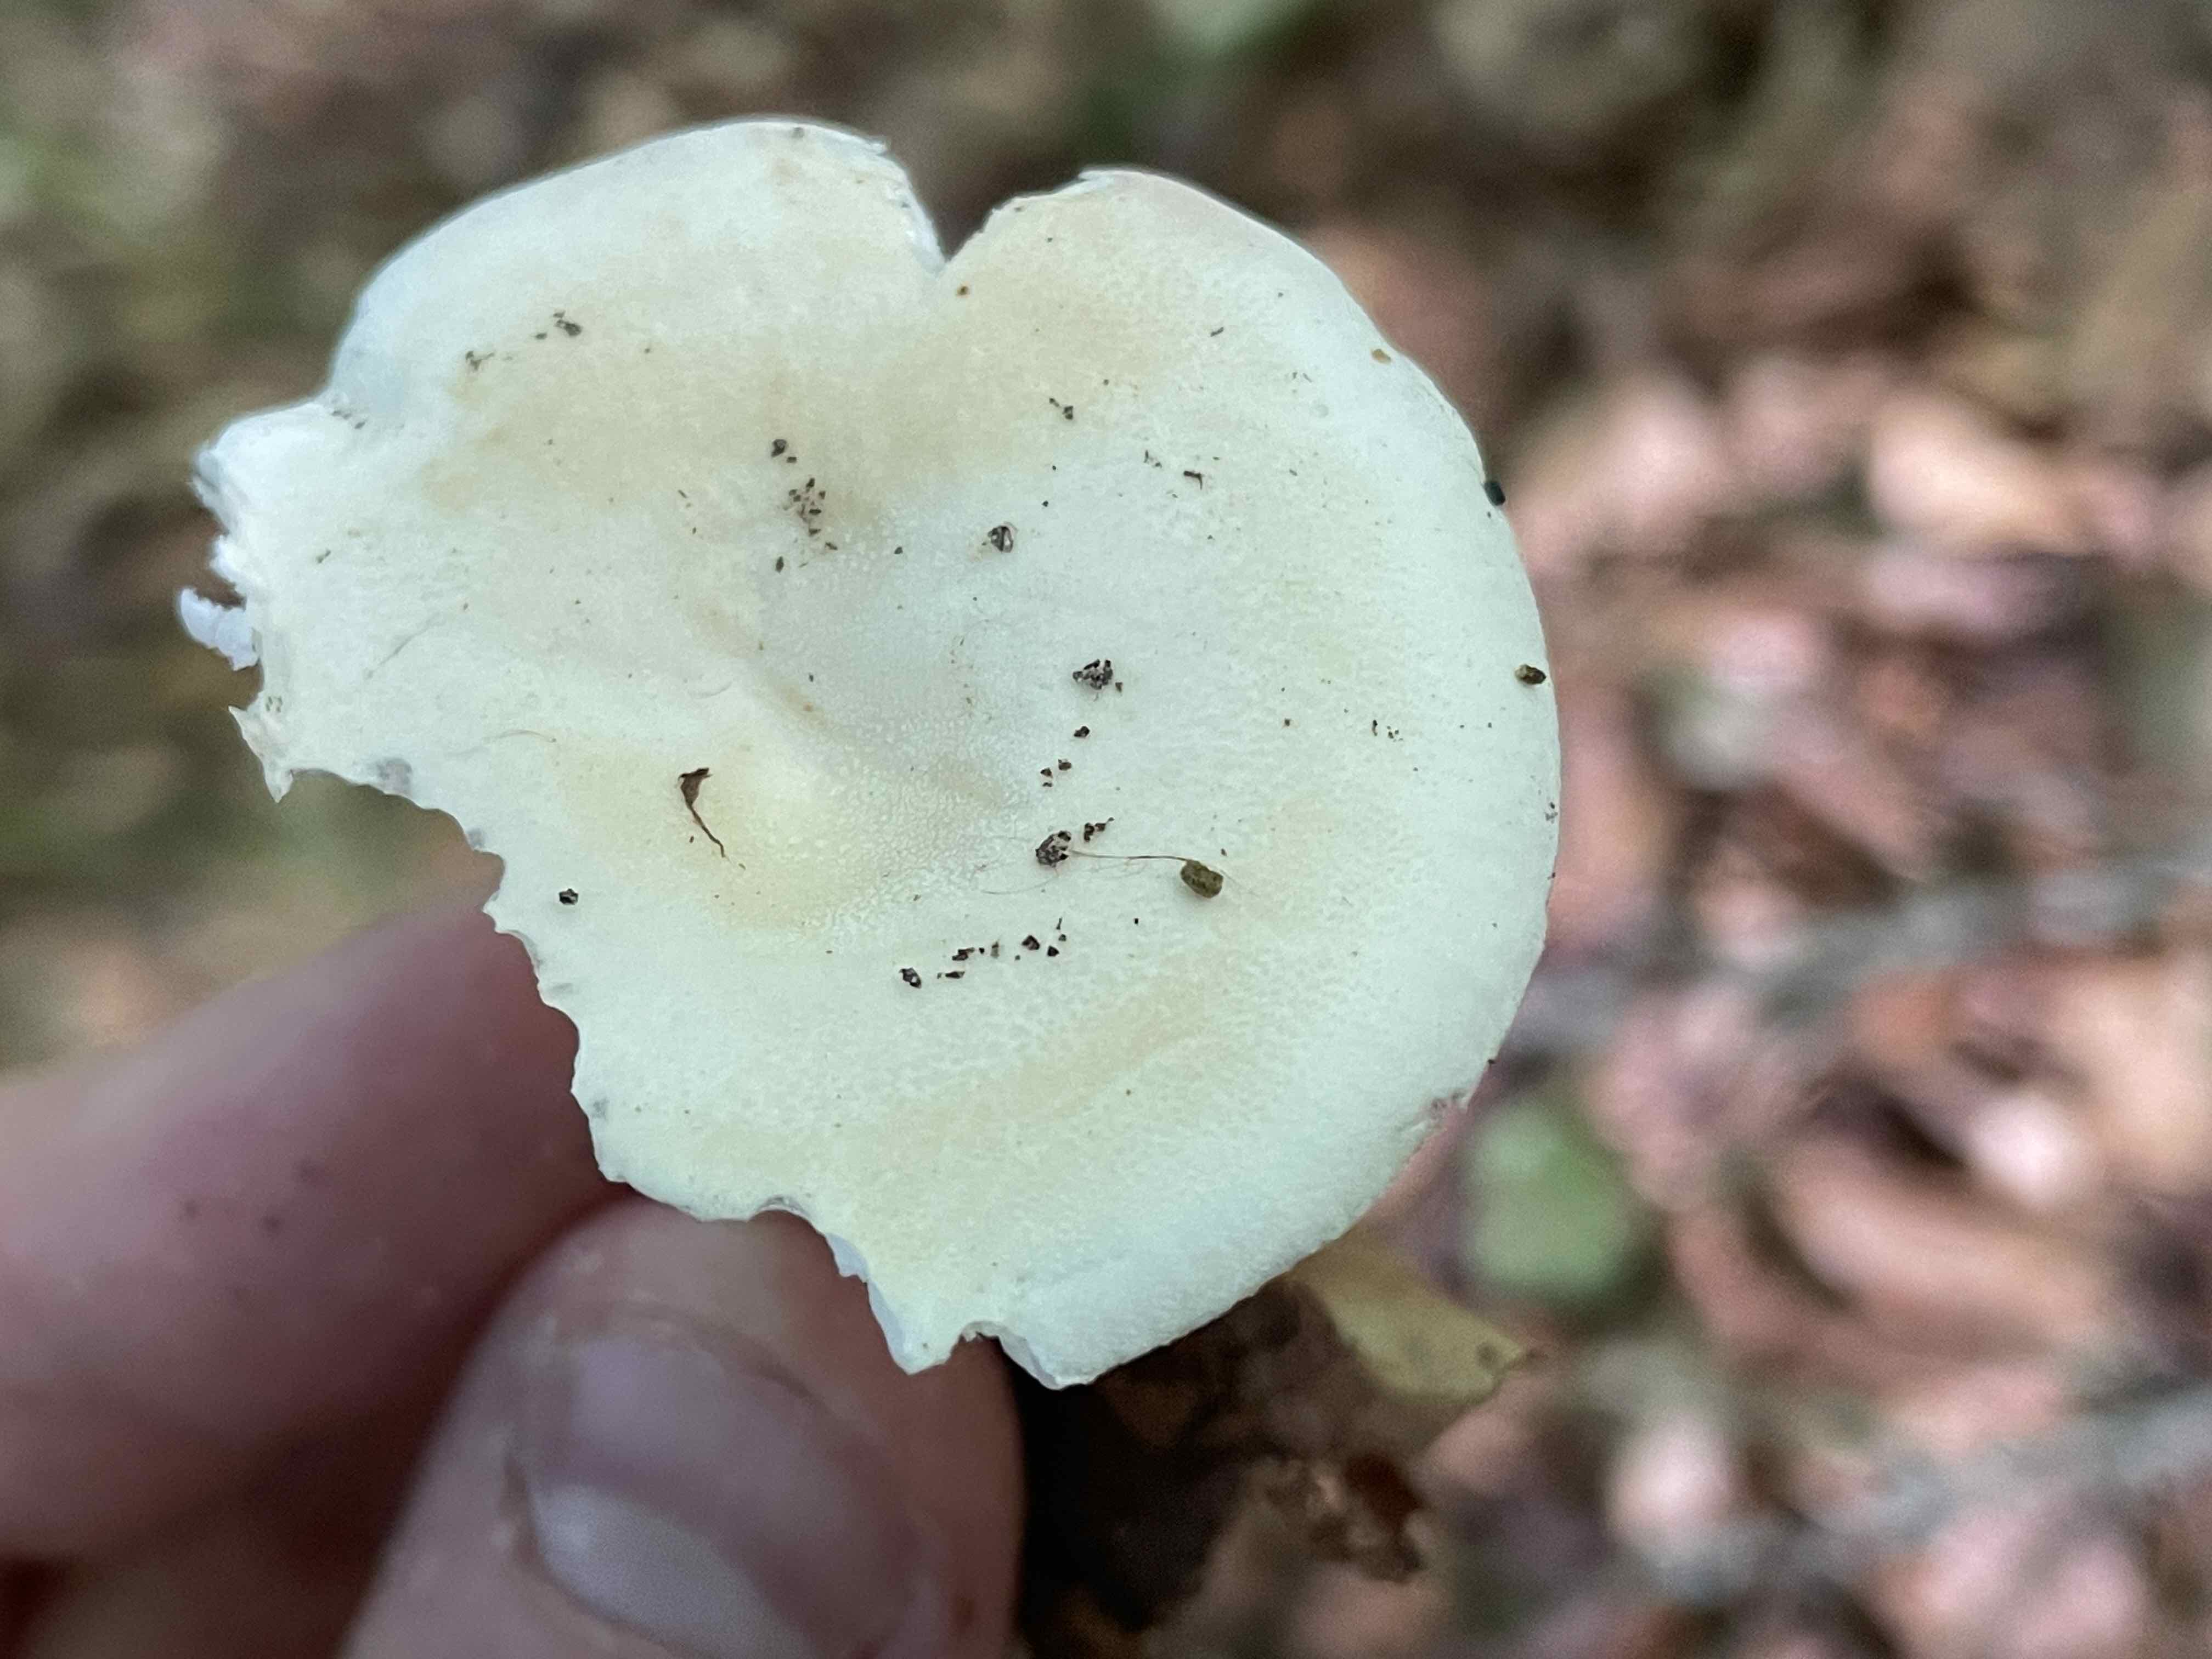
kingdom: Fungi
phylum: Basidiomycota
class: Agaricomycetes
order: Russulales
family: Russulaceae
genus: Russula
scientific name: Russula roseoaurantia
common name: kornet skørhat
